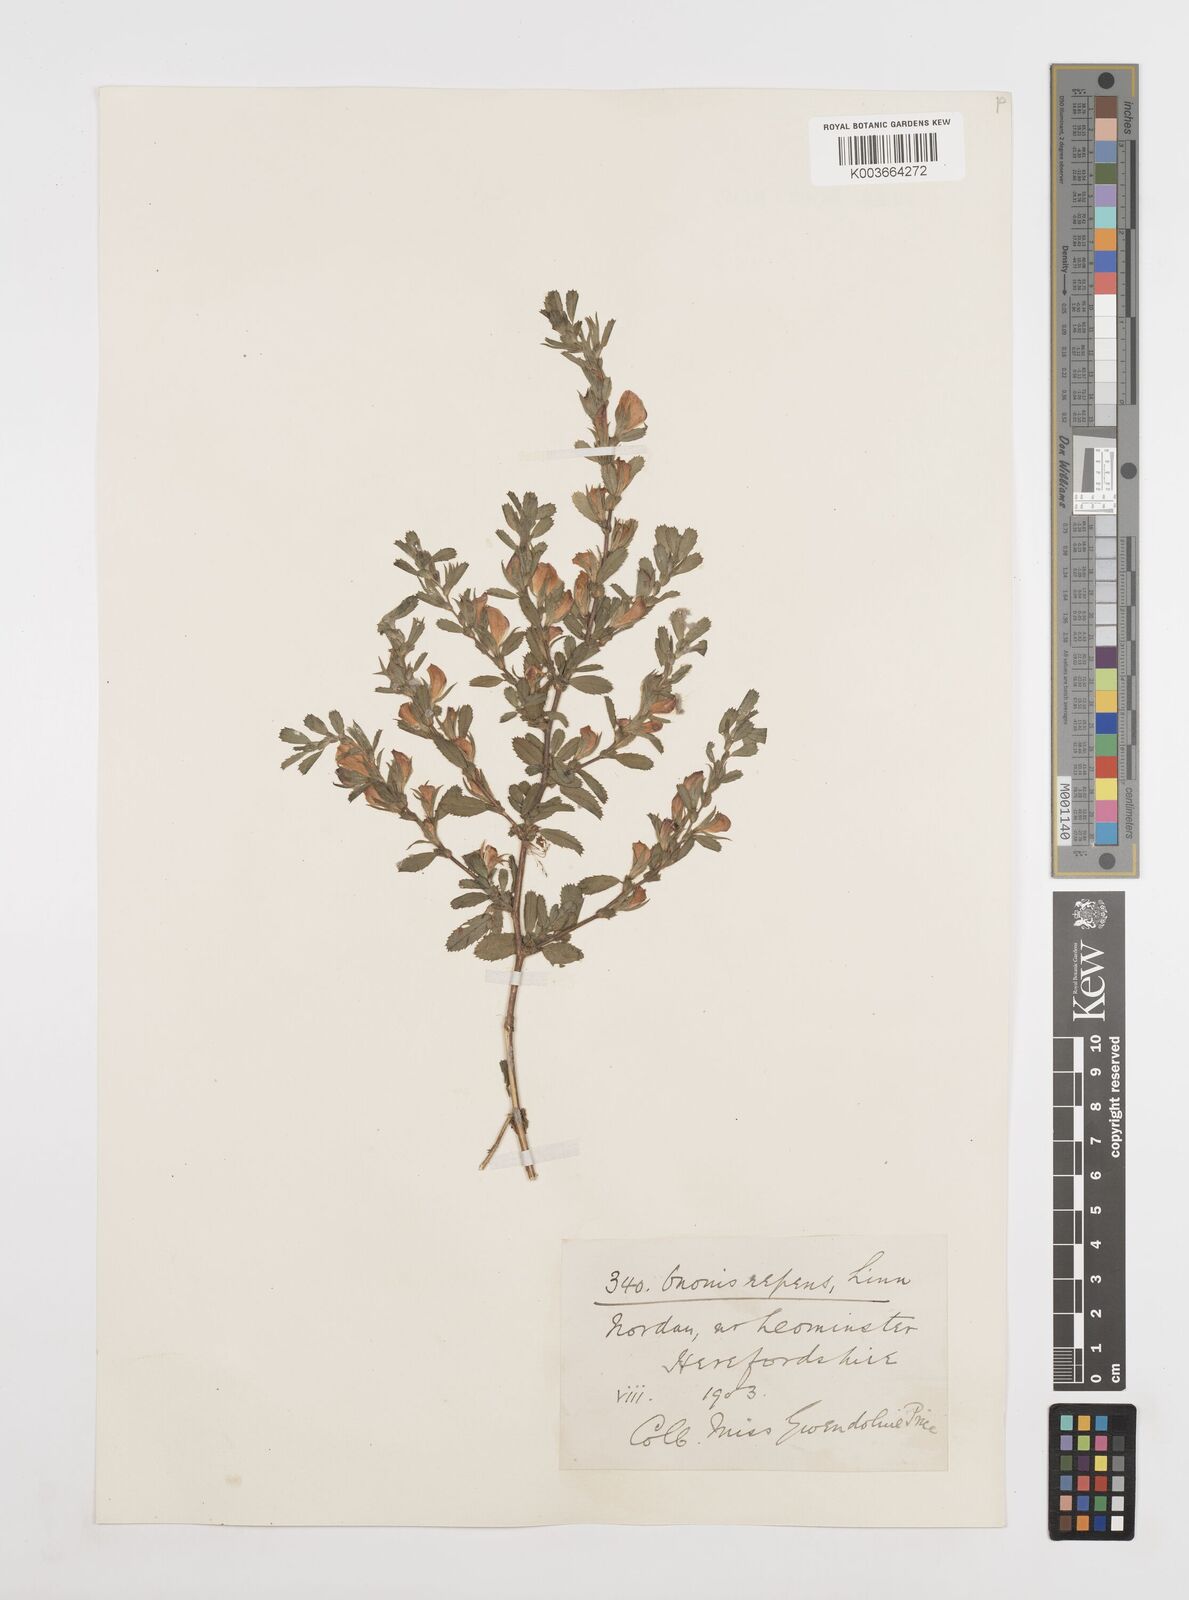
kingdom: Plantae
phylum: Tracheophyta
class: Magnoliopsida
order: Fabales
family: Fabaceae
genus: Ononis
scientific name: Ononis spinosa
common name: Spiny restharrow
